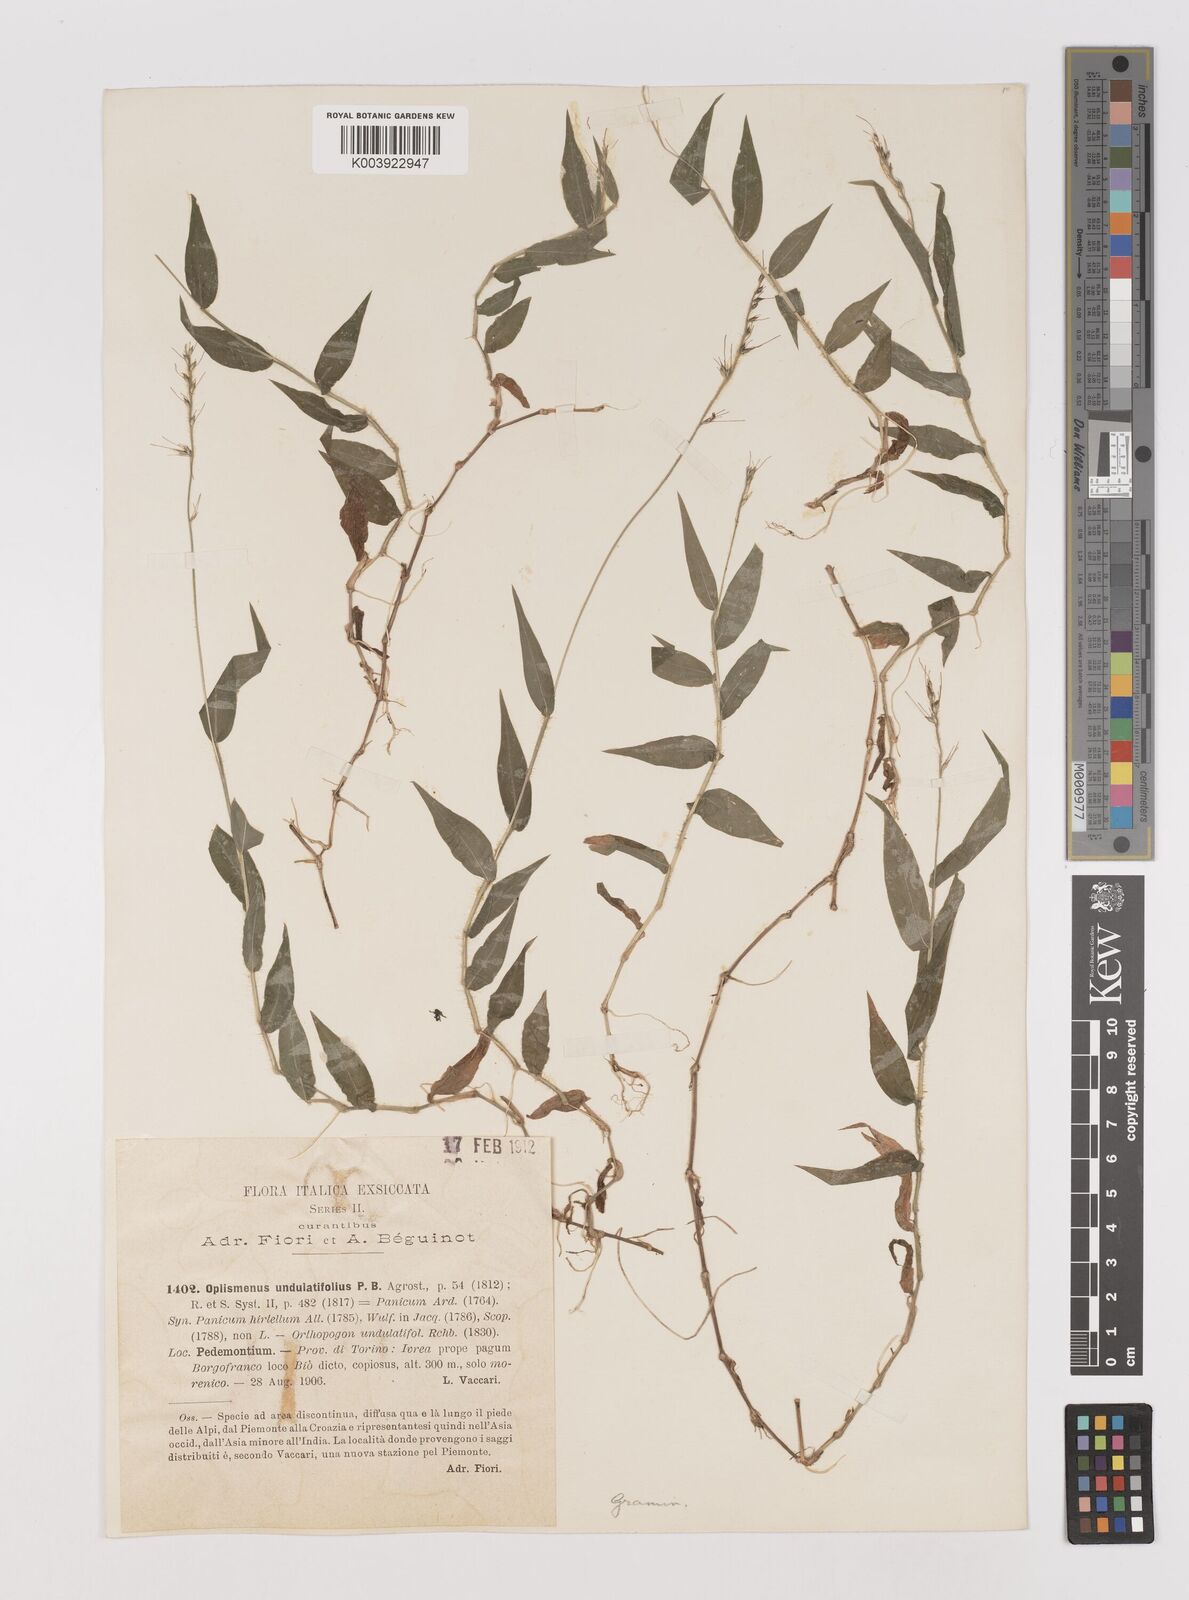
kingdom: Plantae
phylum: Tracheophyta
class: Liliopsida
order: Poales
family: Poaceae
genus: Oplismenus
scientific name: Oplismenus undulatifolius
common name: Wavyleaf basketgrass
